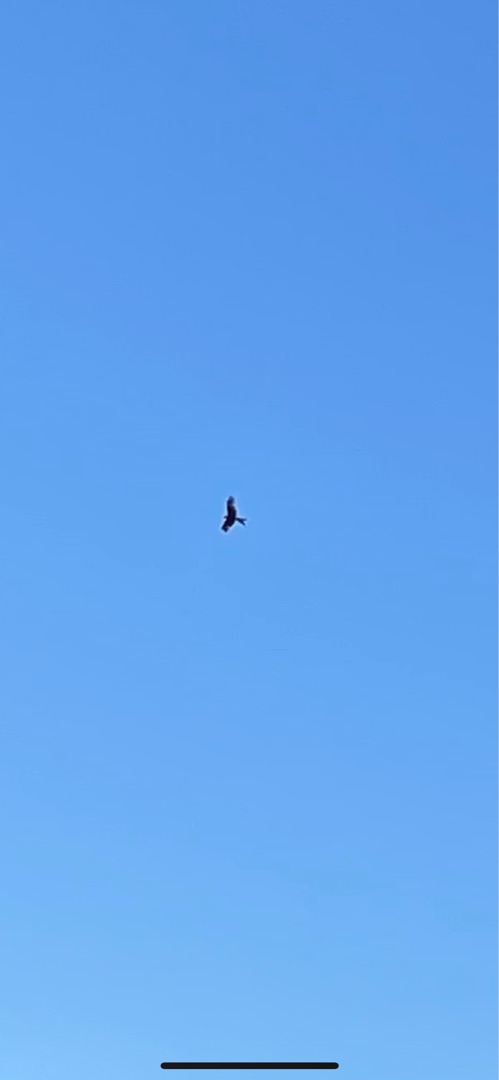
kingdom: Animalia
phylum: Chordata
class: Aves
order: Accipitriformes
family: Accipitridae
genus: Milvus
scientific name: Milvus milvus
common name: Rød glente
